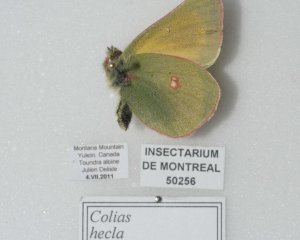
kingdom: Animalia
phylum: Arthropoda
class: Insecta
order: Lepidoptera
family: Pieridae
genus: Colias
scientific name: Colias hecla
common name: Hecla Sulphur
